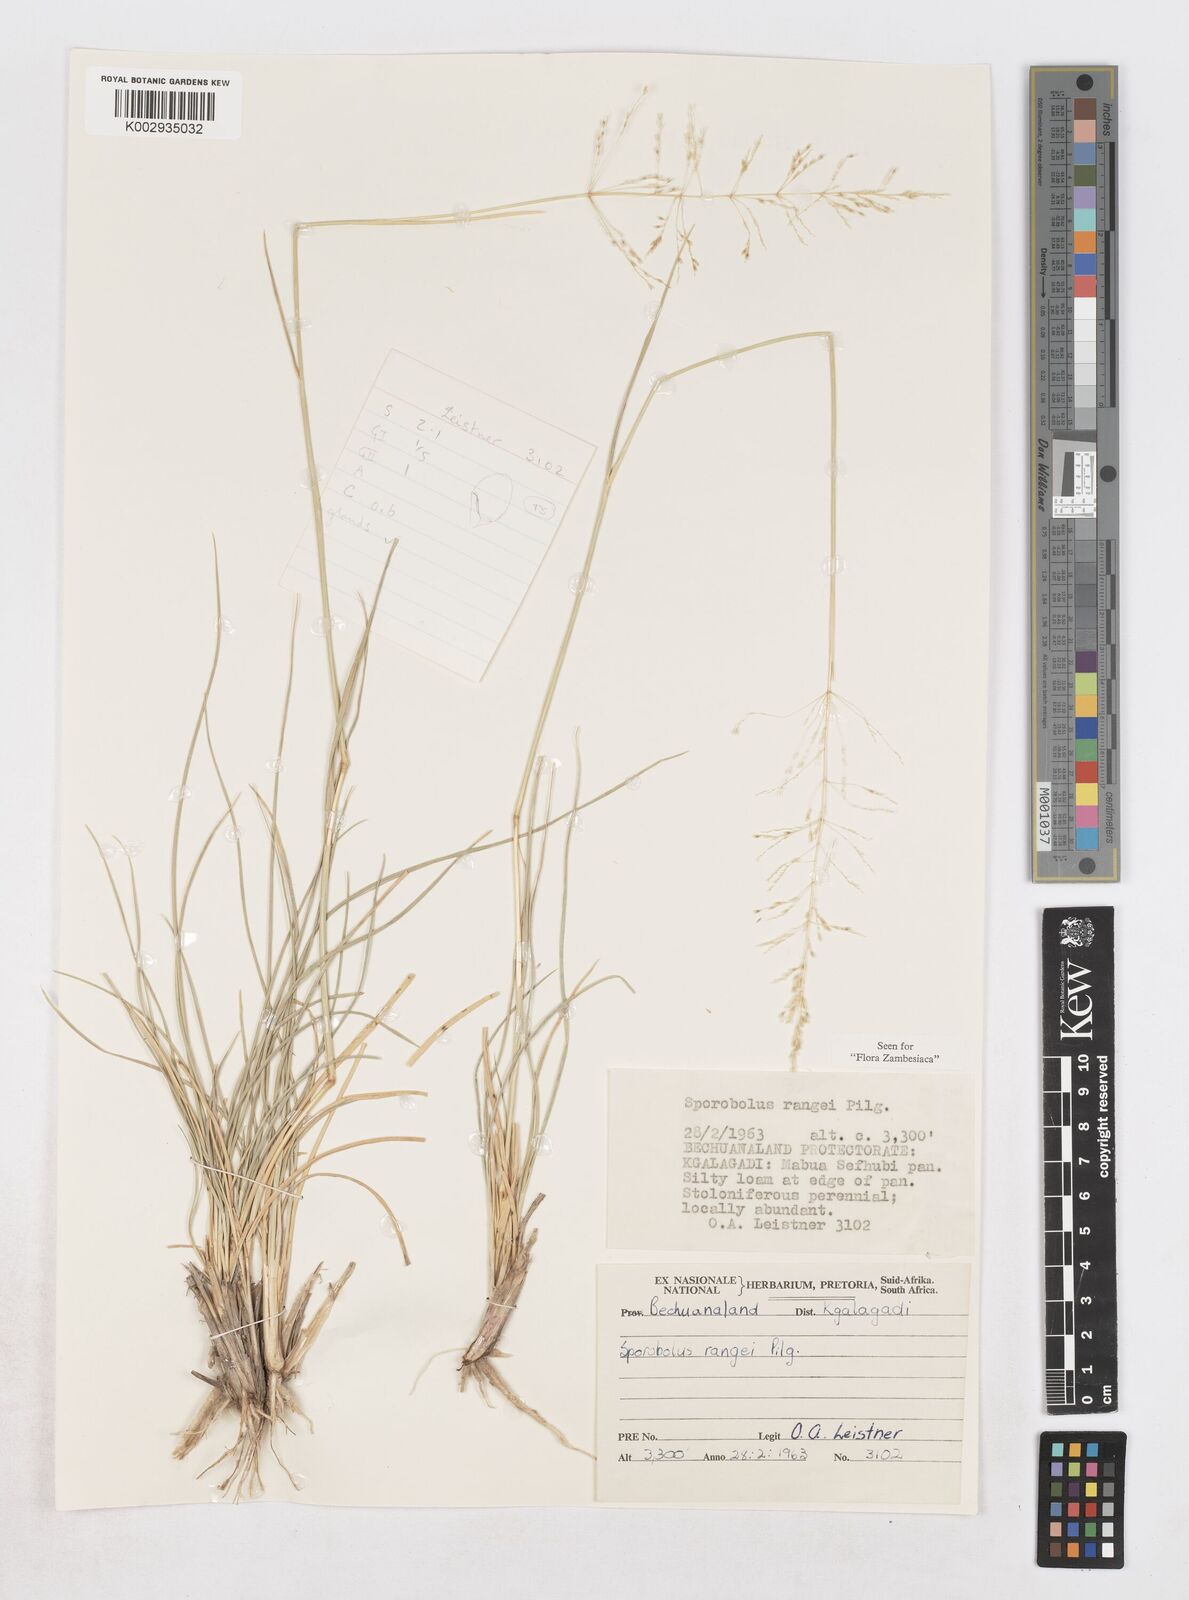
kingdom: Plantae
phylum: Tracheophyta
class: Liliopsida
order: Poales
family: Poaceae
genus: Sporobolus
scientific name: Sporobolus ioclados
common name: Pan dropseed
